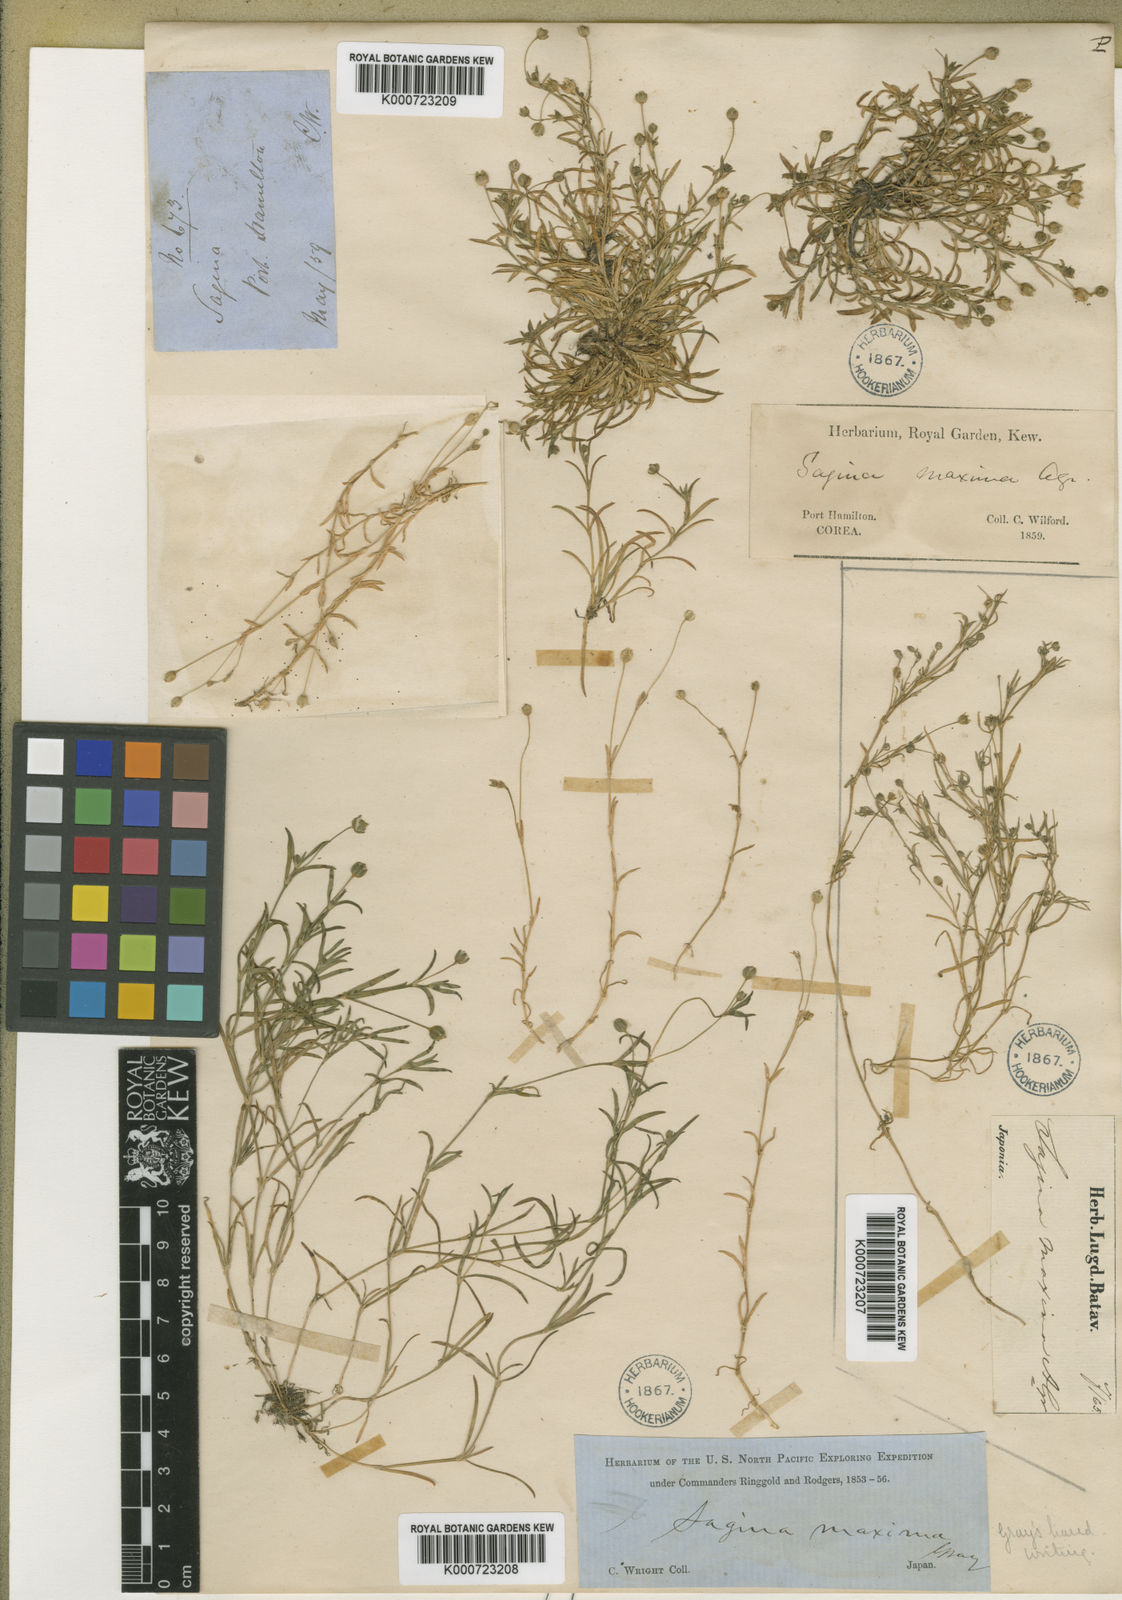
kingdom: Plantae
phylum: Tracheophyta
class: Magnoliopsida
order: Caryophyllales
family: Caryophyllaceae
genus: Sagina
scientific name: Sagina maxima
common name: Coastal pearlwort
